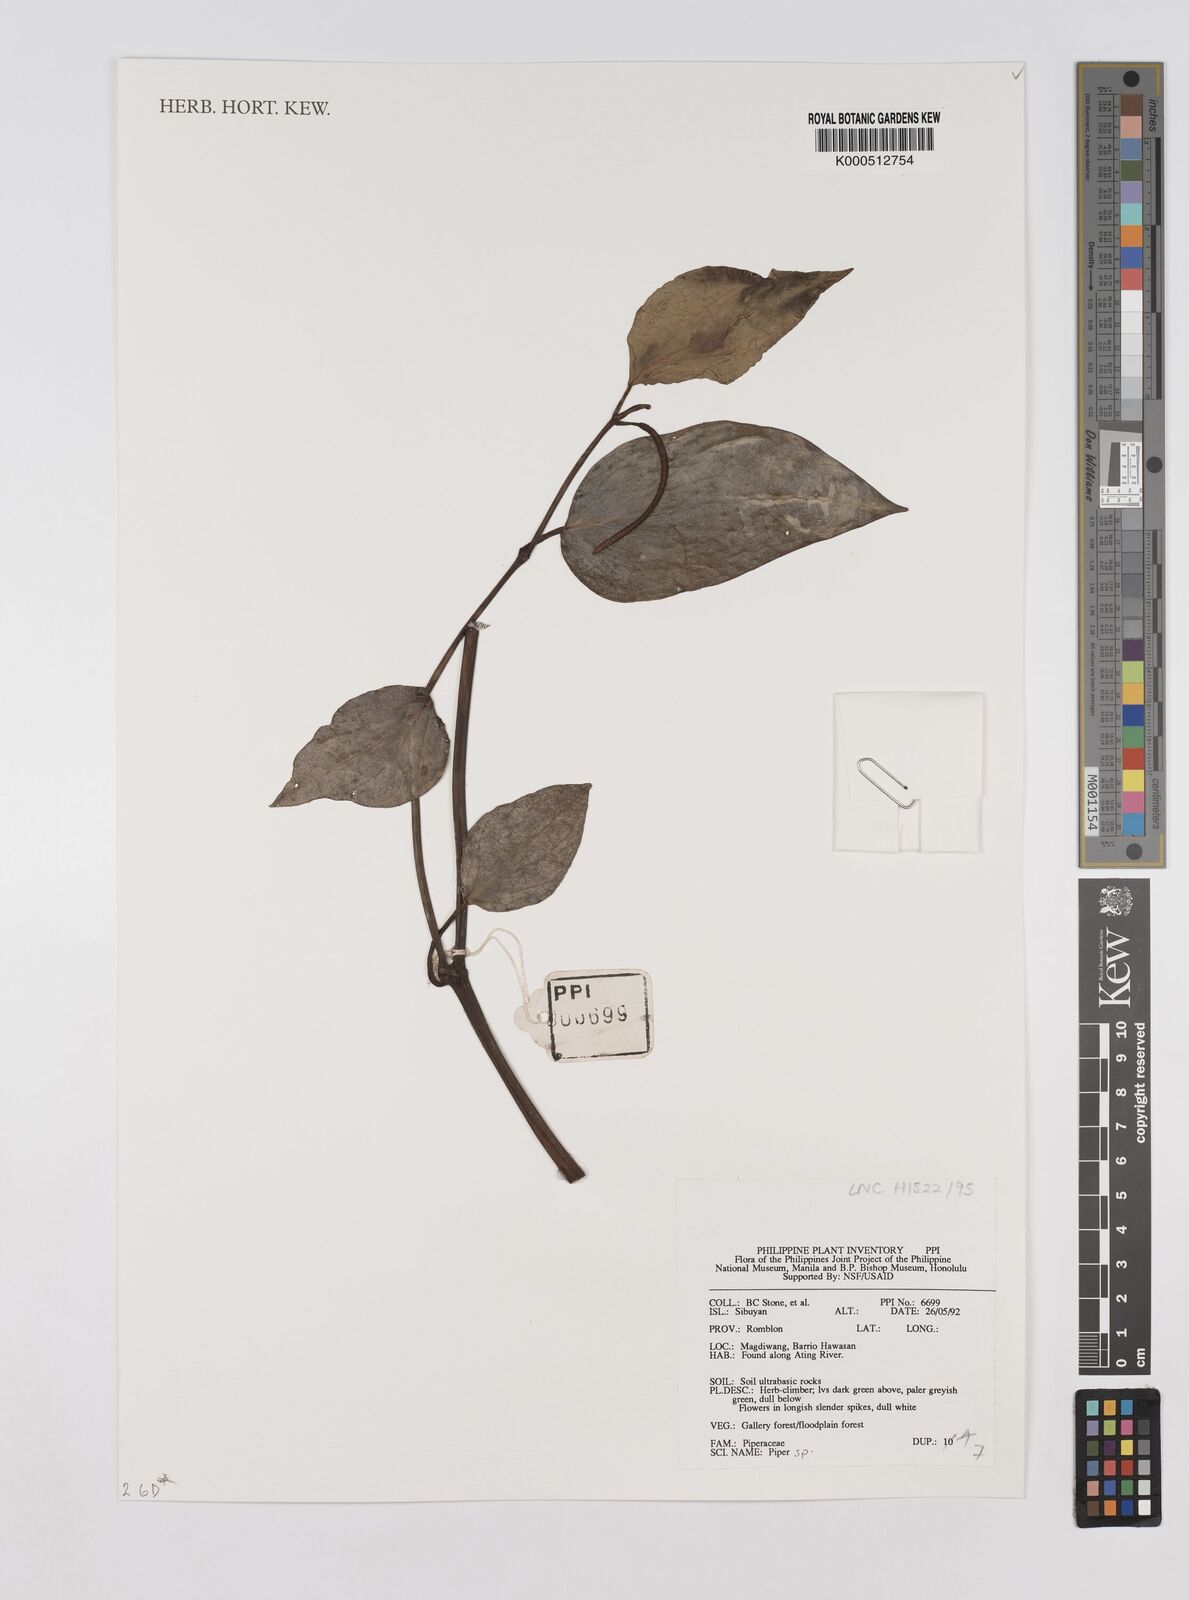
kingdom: Plantae
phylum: Tracheophyta
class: Magnoliopsida
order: Piperales
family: Piperaceae
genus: Piper
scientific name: Piper
